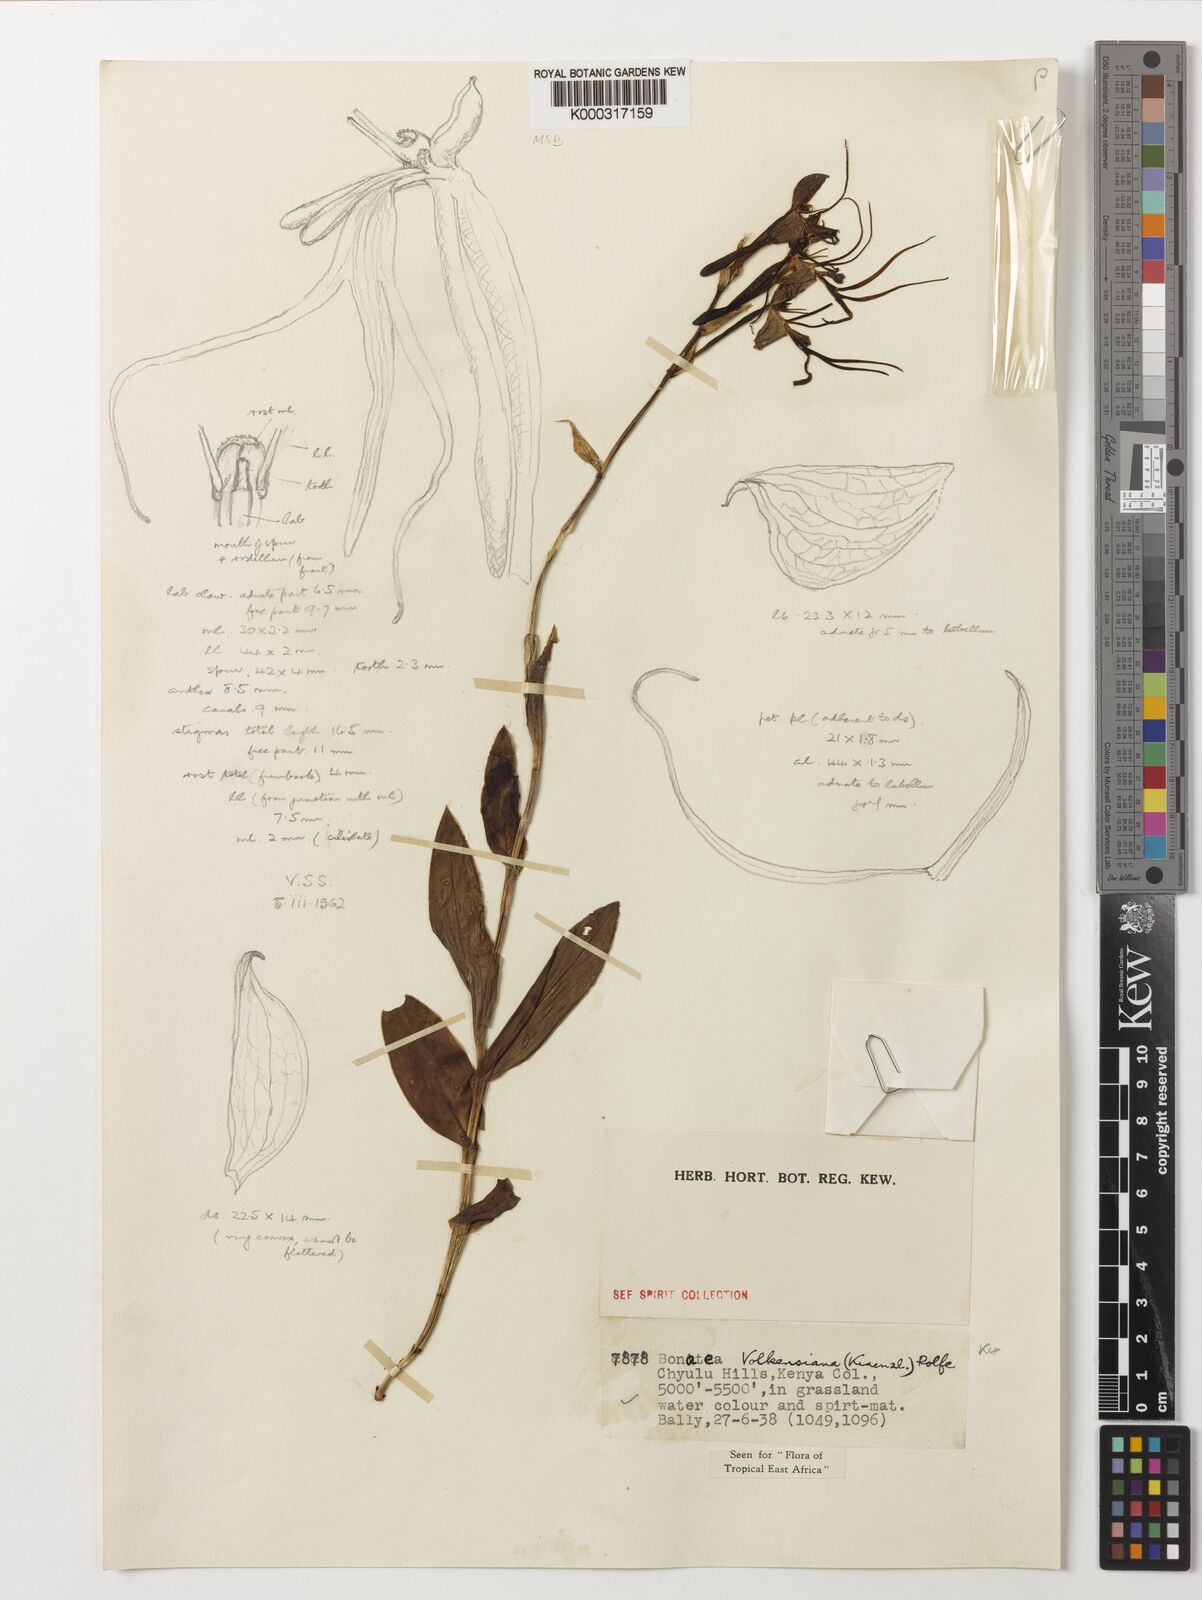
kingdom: Plantae
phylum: Tracheophyta
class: Liliopsida
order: Asparagales
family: Orchidaceae
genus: Bonatea
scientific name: Bonatea volkensiana
